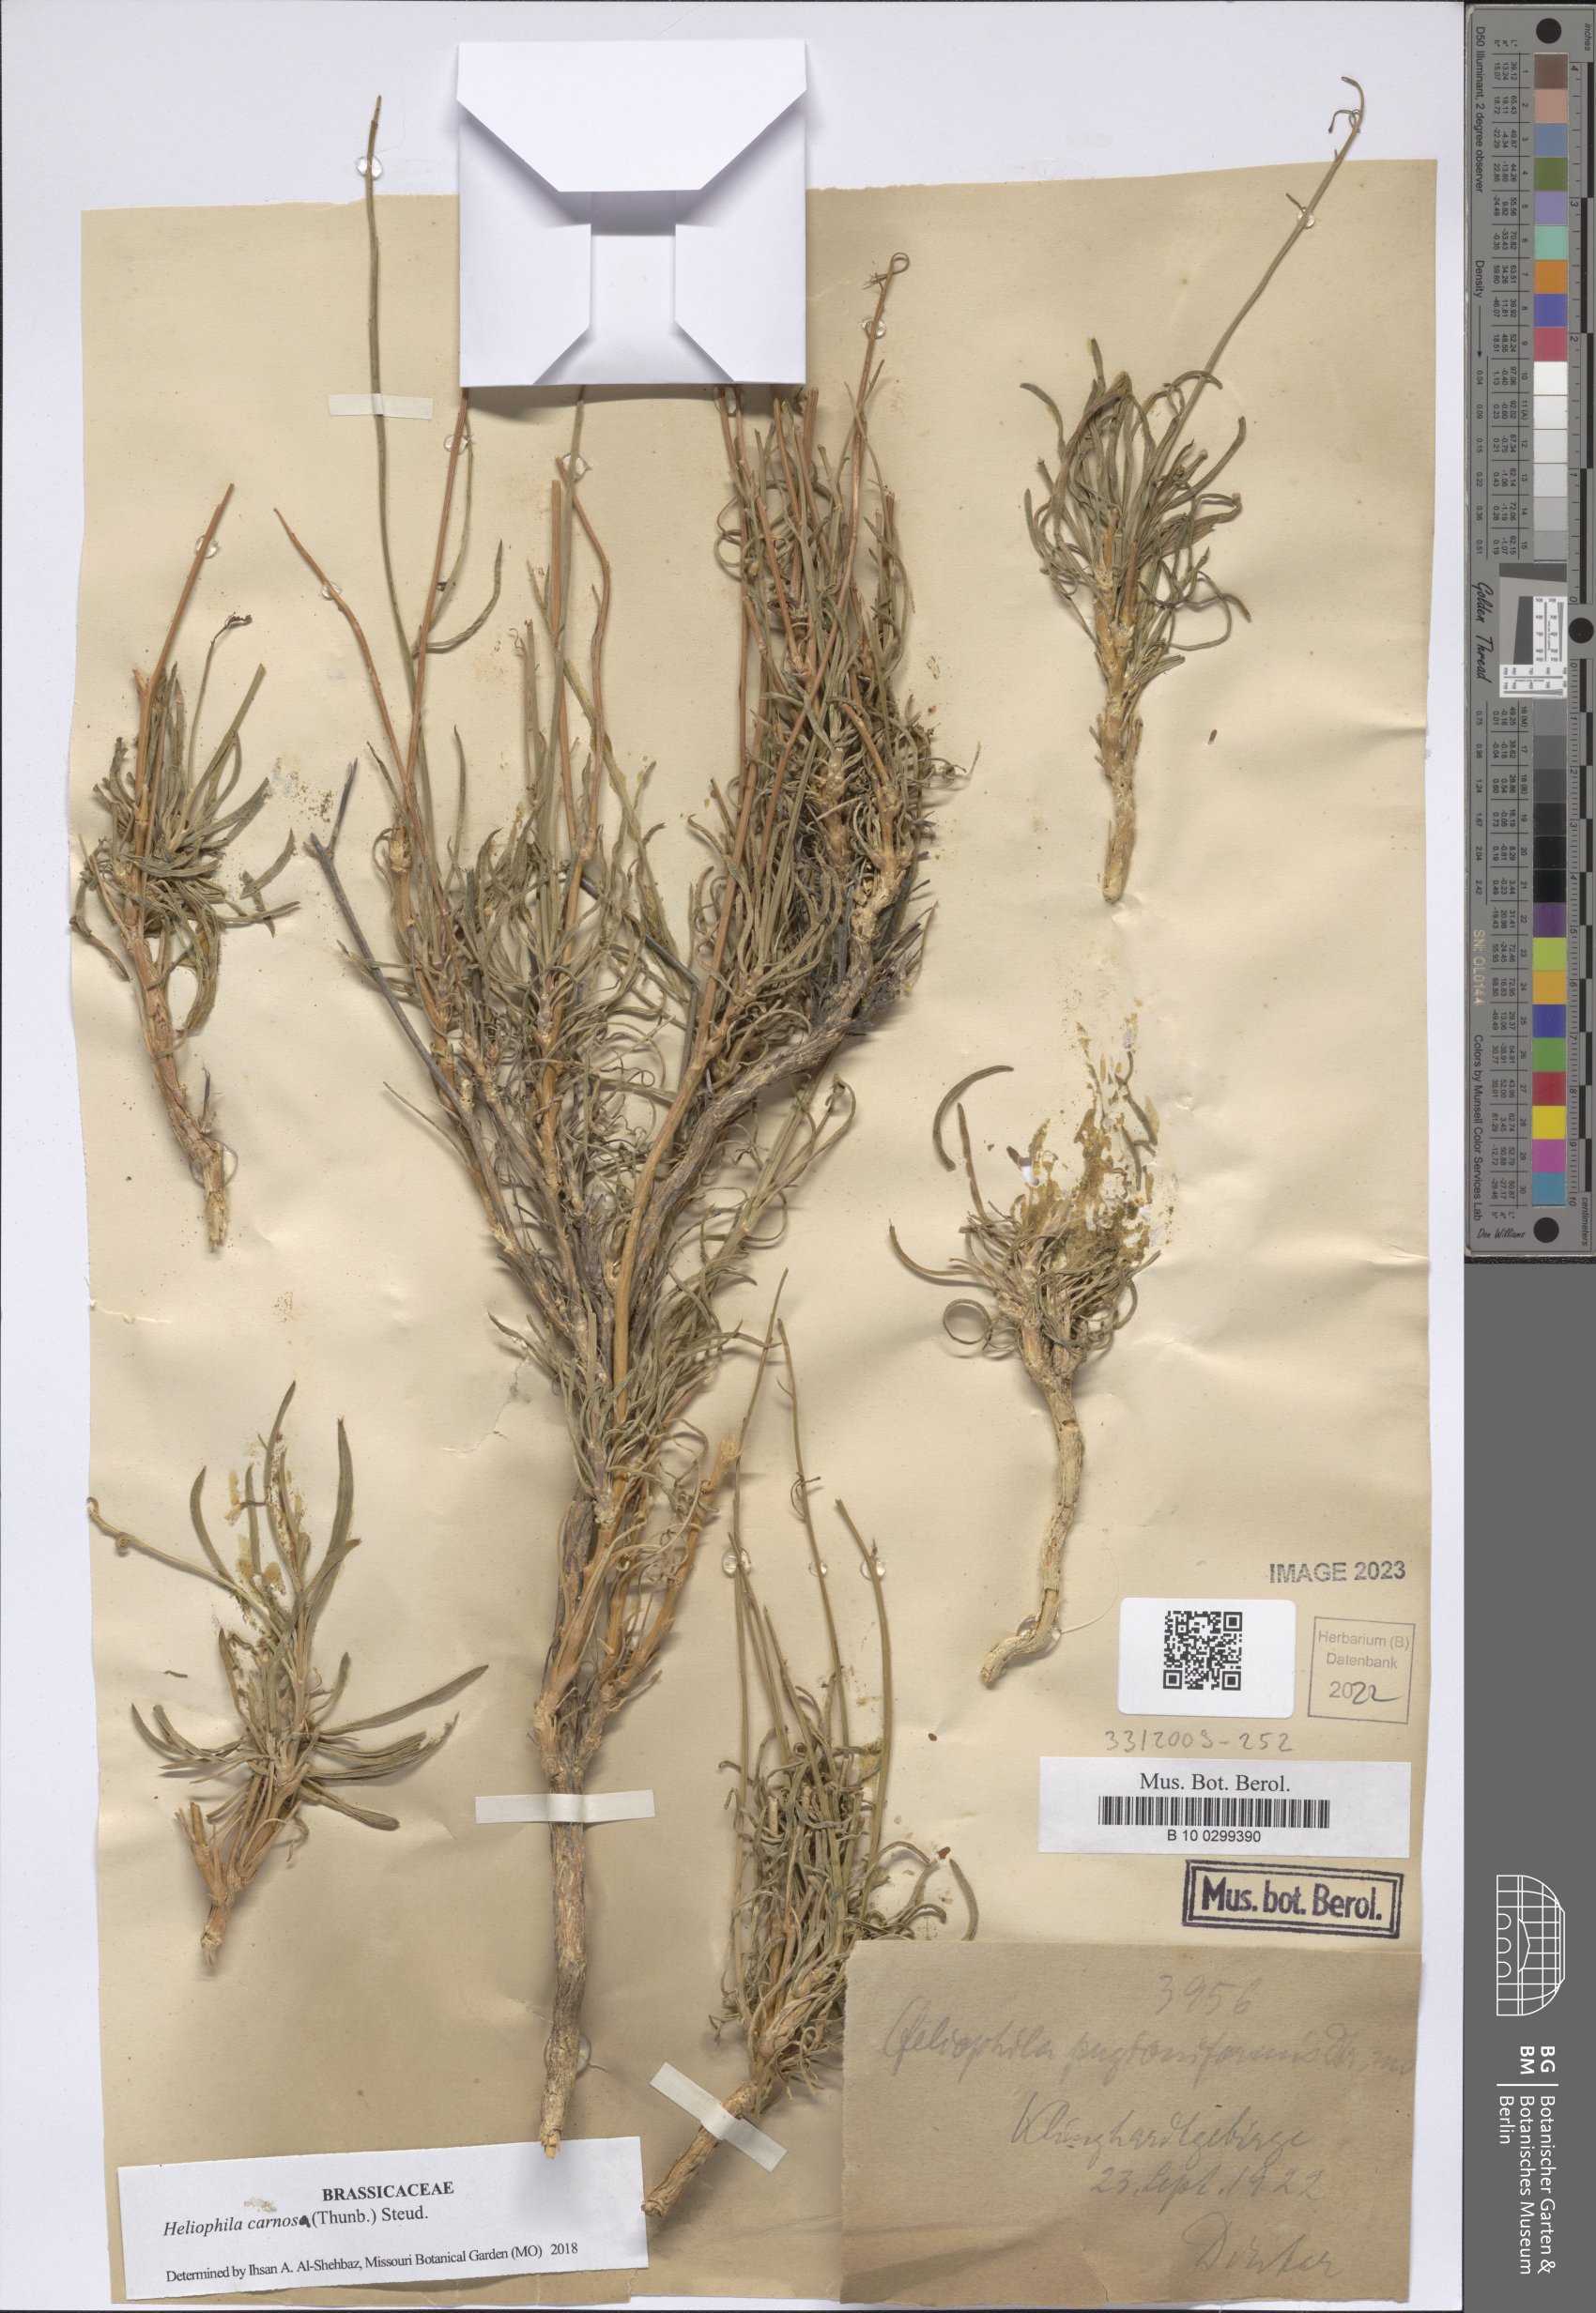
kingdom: Plantae
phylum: Tracheophyta
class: Magnoliopsida
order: Brassicales
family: Brassicaceae
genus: Heliophila
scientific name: Heliophila carnosa
